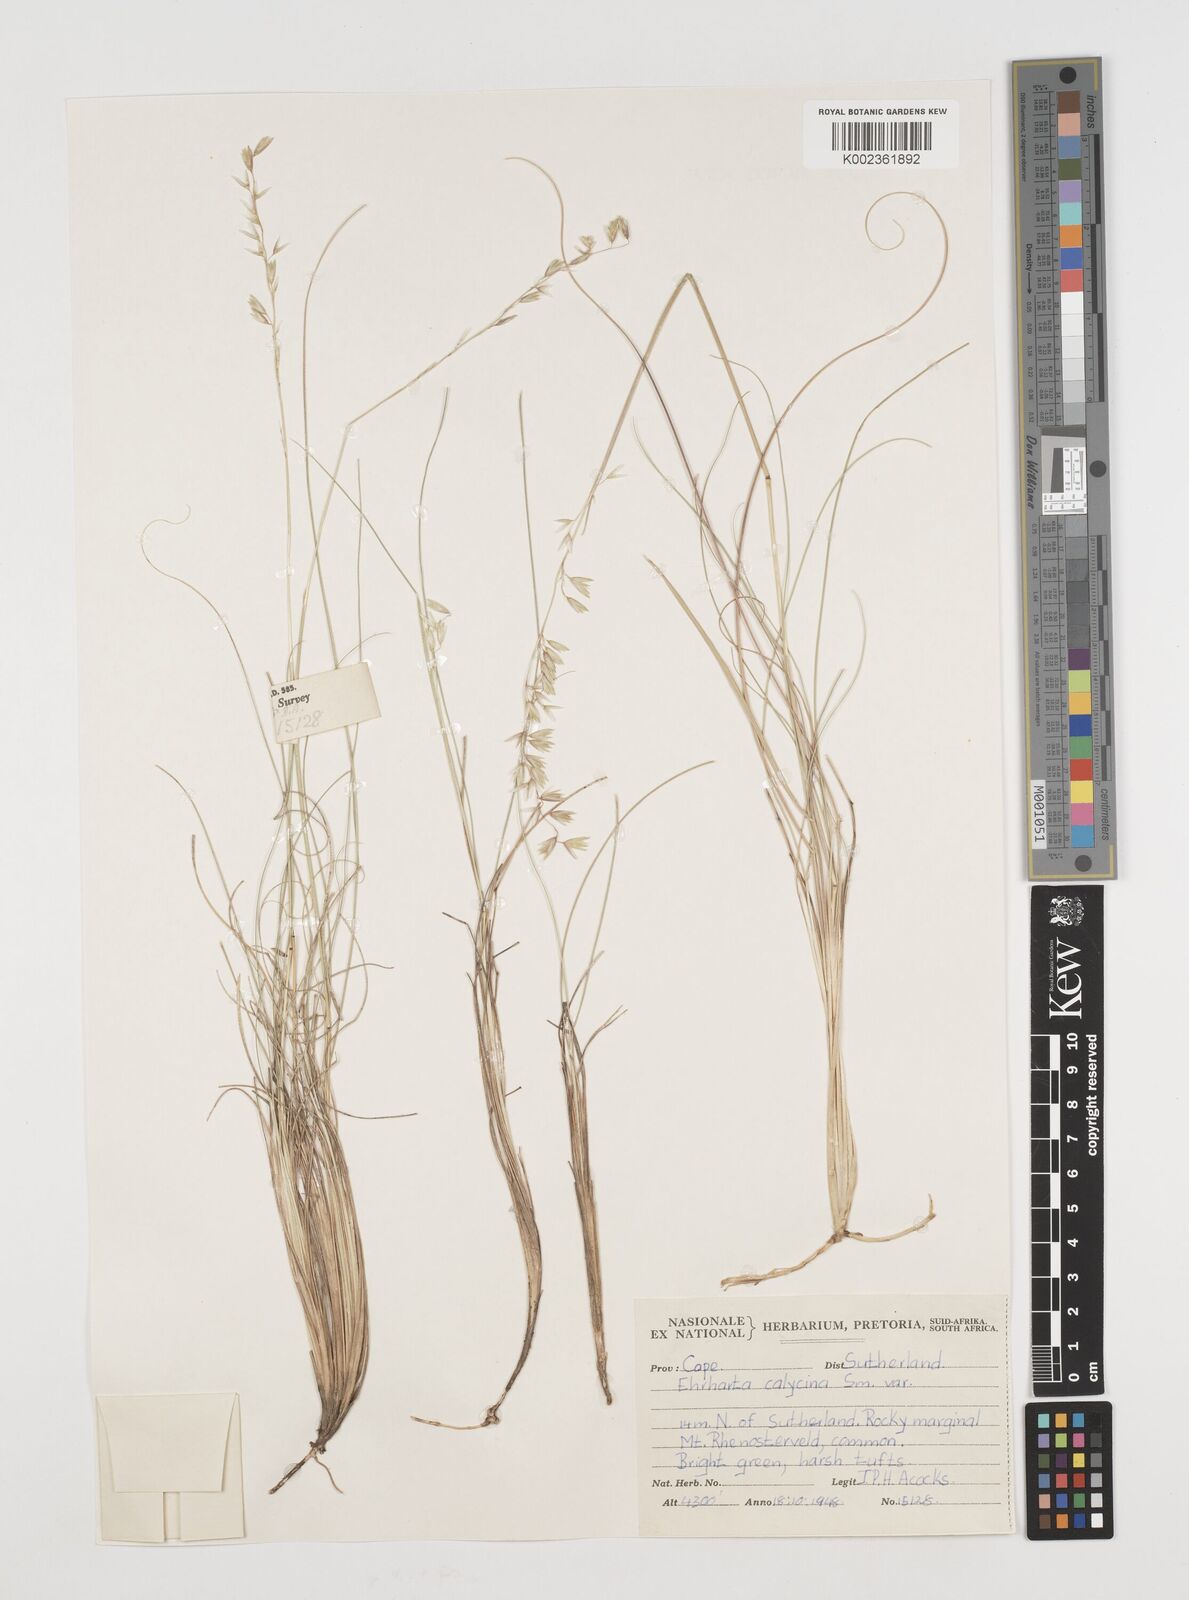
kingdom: Plantae
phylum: Tracheophyta
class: Liliopsida
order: Poales
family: Poaceae
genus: Ehrharta
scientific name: Ehrharta calycina
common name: Perennial veldtgrass
